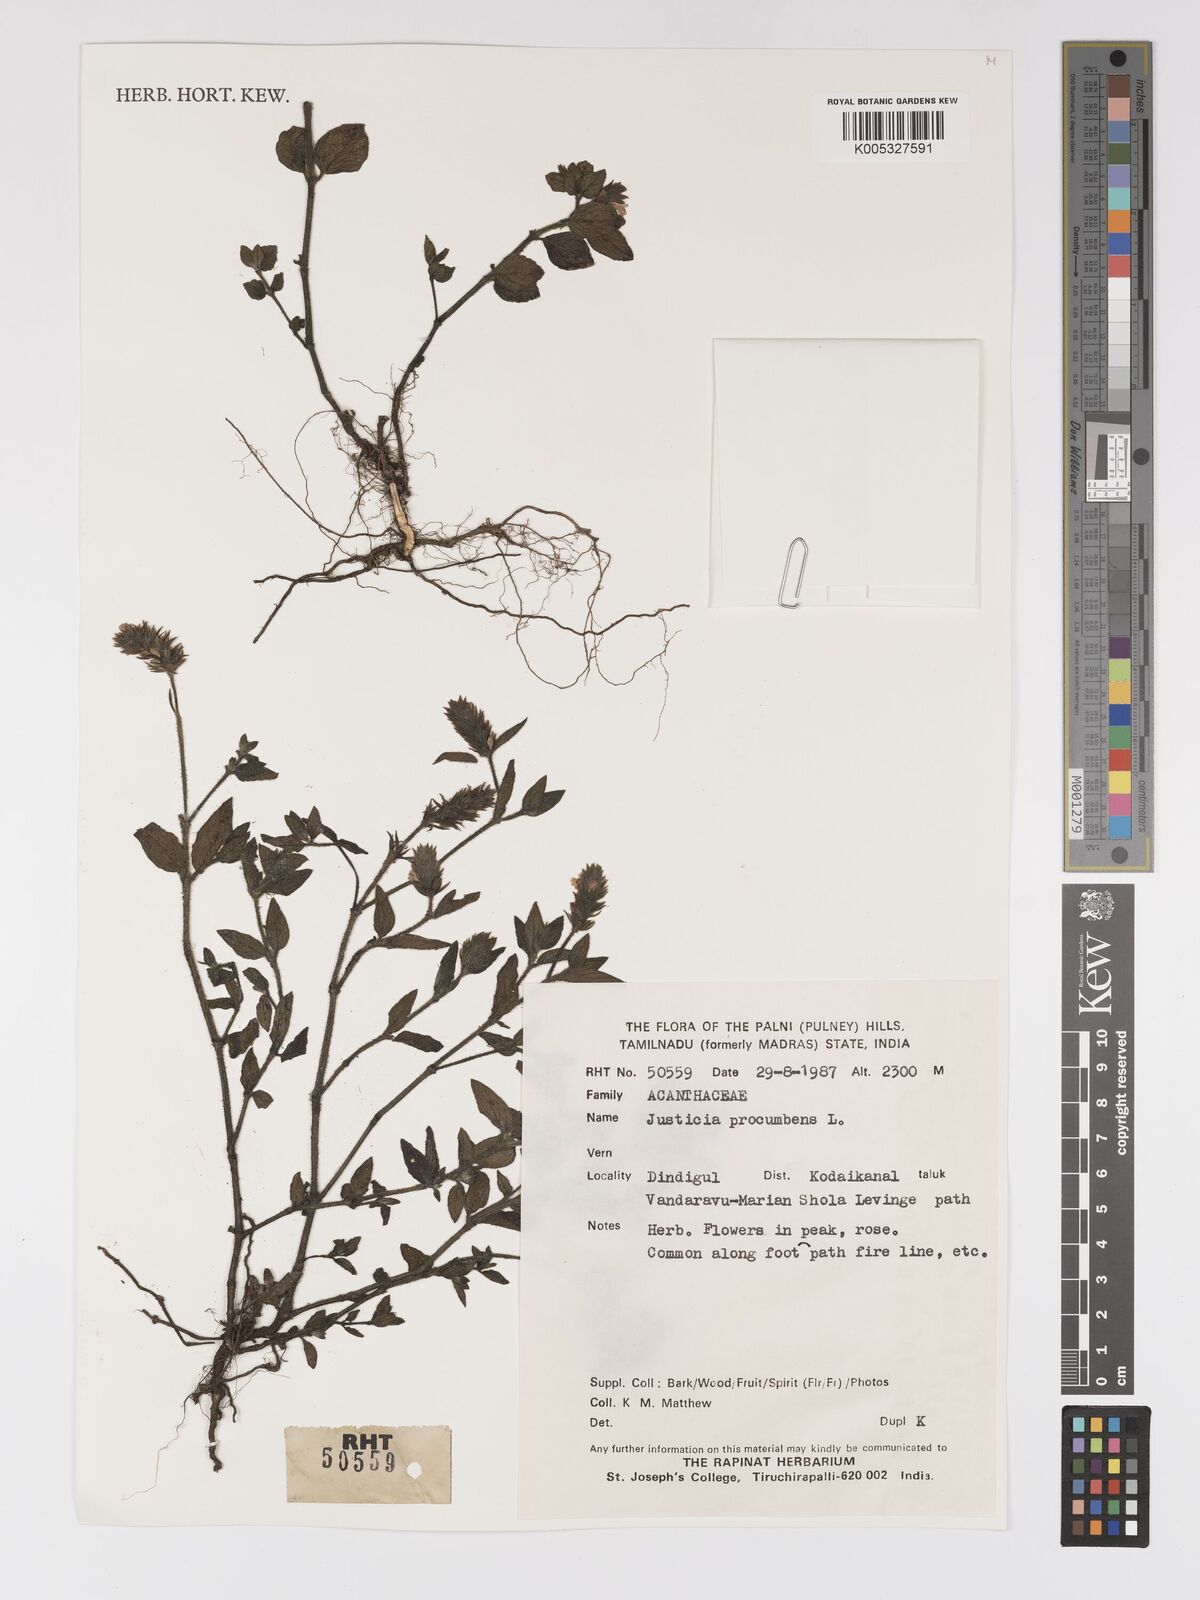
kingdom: Plantae
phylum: Tracheophyta
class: Magnoliopsida
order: Lamiales
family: Acanthaceae
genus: Rostellularia
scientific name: Rostellularia procumbens
